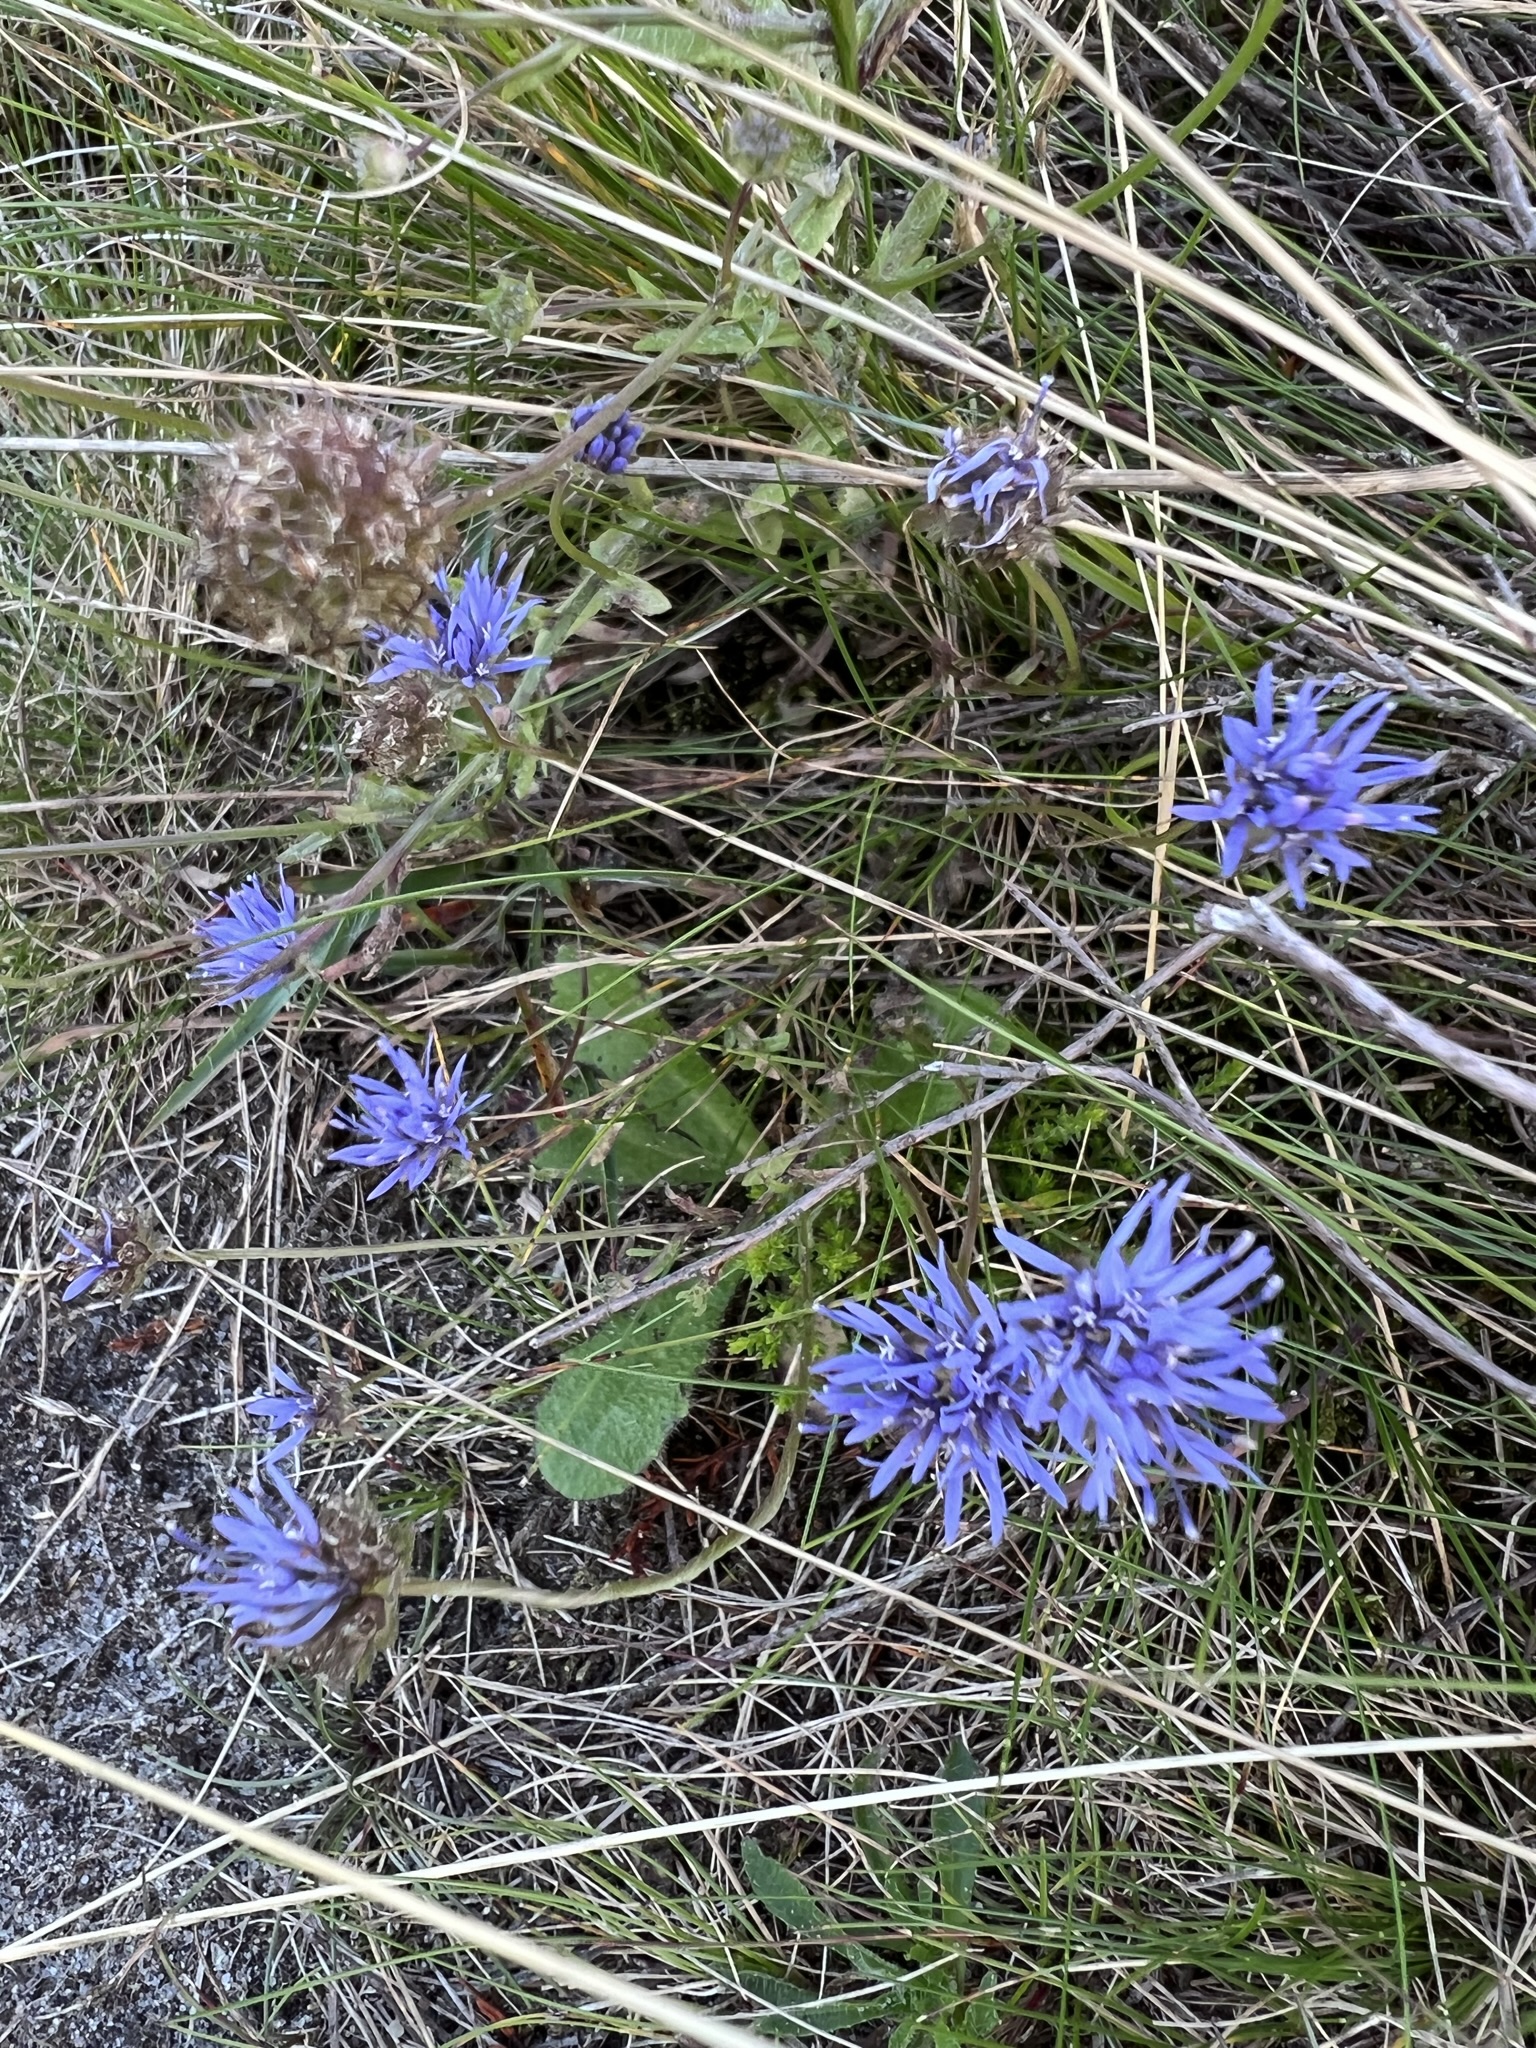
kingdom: Plantae
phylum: Tracheophyta
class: Magnoliopsida
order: Asterales
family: Campanulaceae
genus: Jasione
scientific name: Jasione montana
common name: Blåmunke
